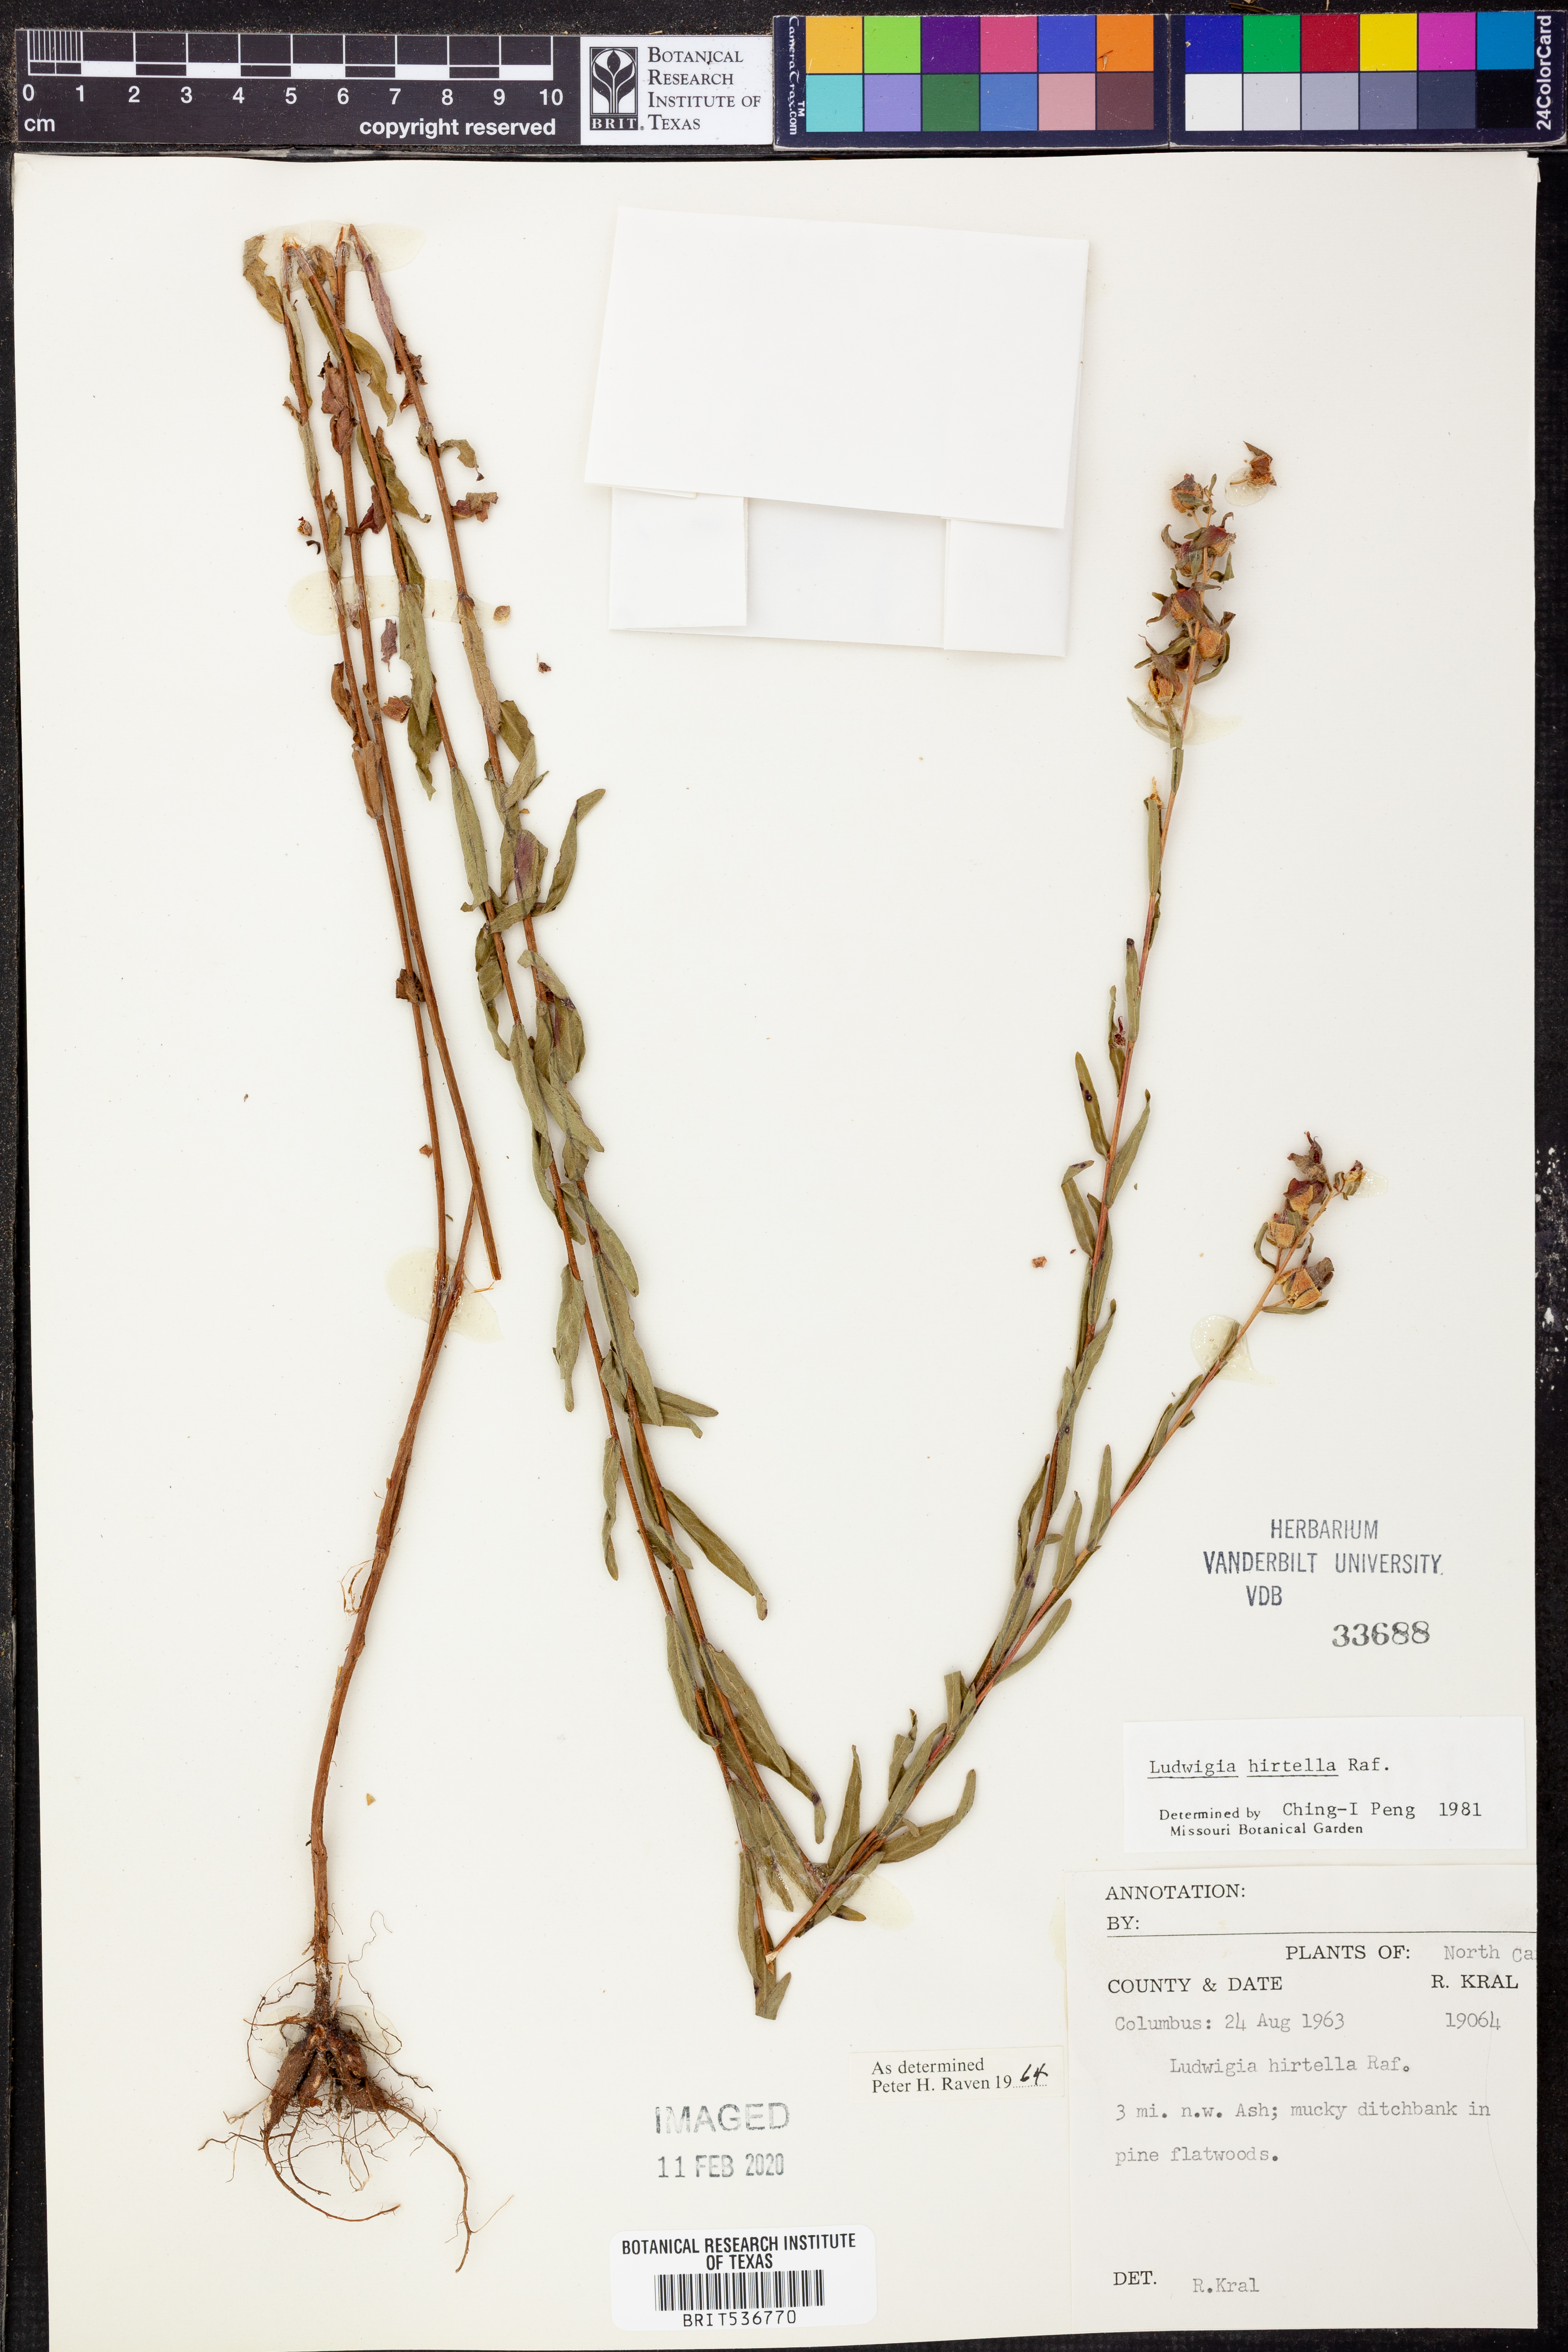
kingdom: Plantae
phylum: Tracheophyta
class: Magnoliopsida
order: Myrtales
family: Onagraceae
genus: Ludwigia
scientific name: Ludwigia hirtella
